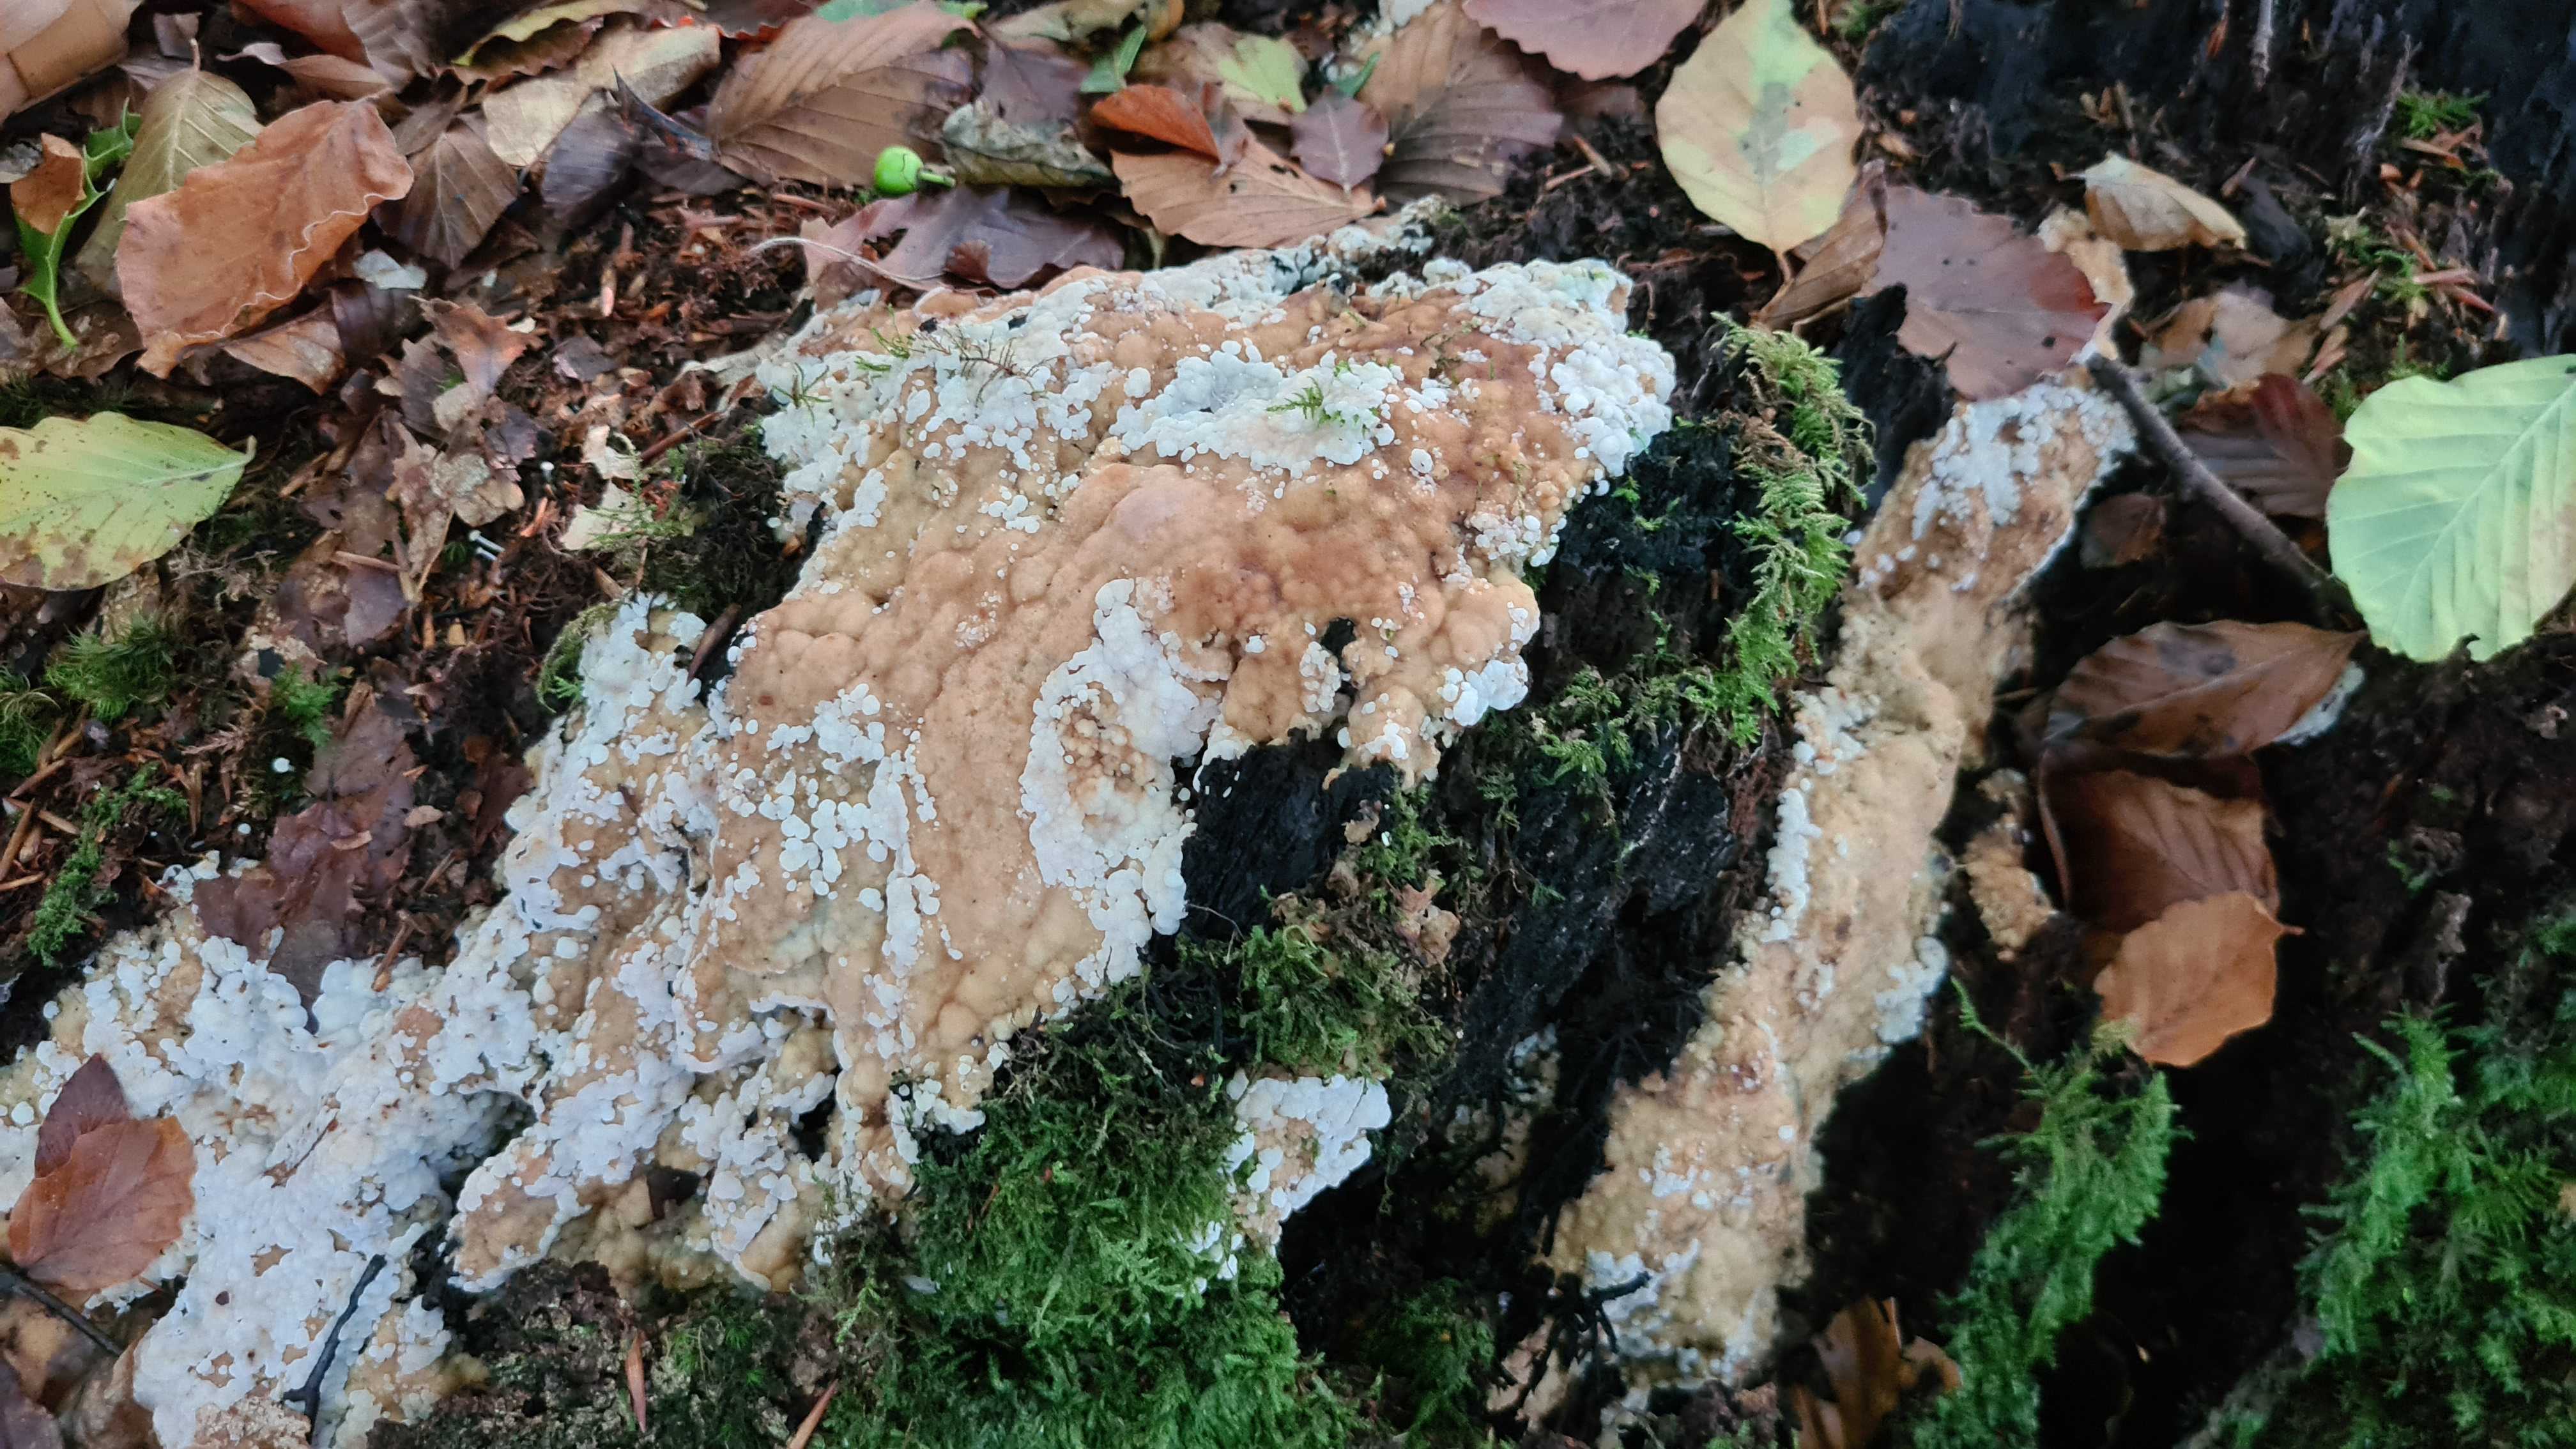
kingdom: Fungi
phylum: Basidiomycota
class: Agaricomycetes
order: Polyporales
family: Meripilaceae
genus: Rigidoporus
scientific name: Rigidoporus sanguinolentus
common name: blod-skorpeporesvamp
